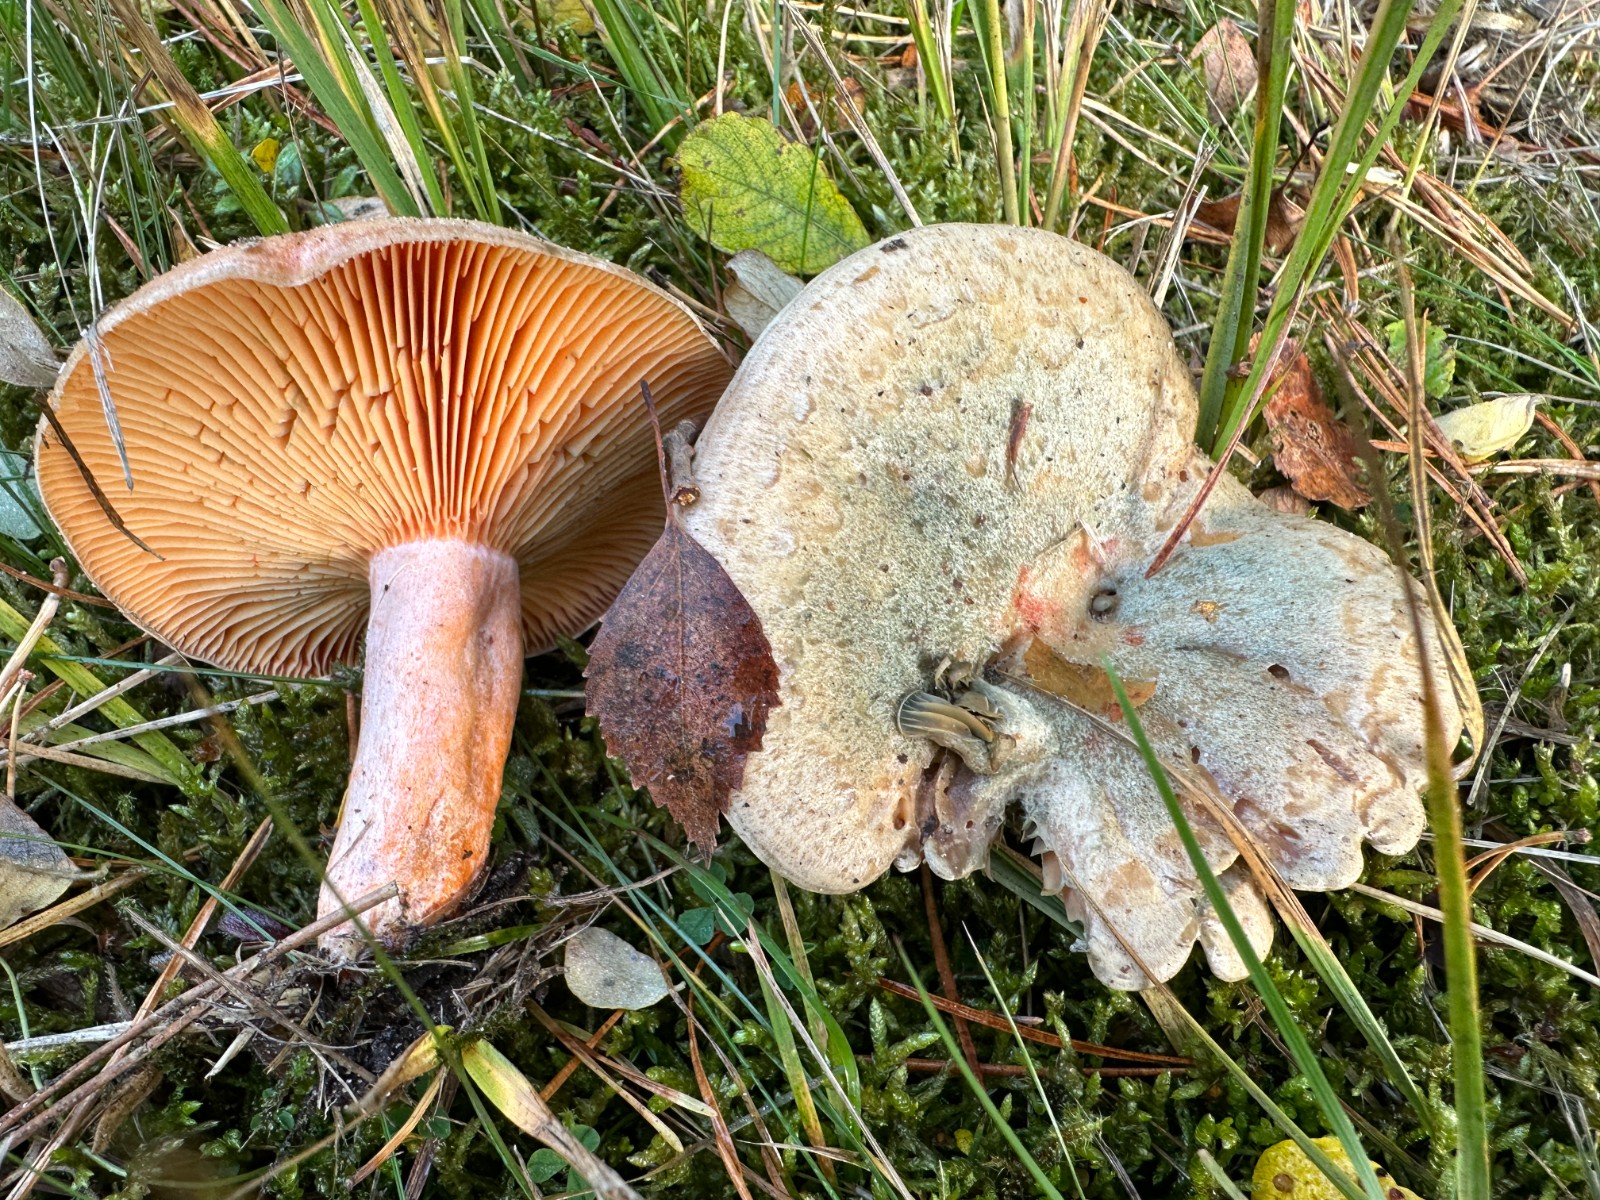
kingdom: Fungi
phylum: Basidiomycota
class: Agaricomycetes
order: Russulales
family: Russulaceae
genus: Lactarius
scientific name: Lactarius deterrimus
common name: gran-mælkehat
